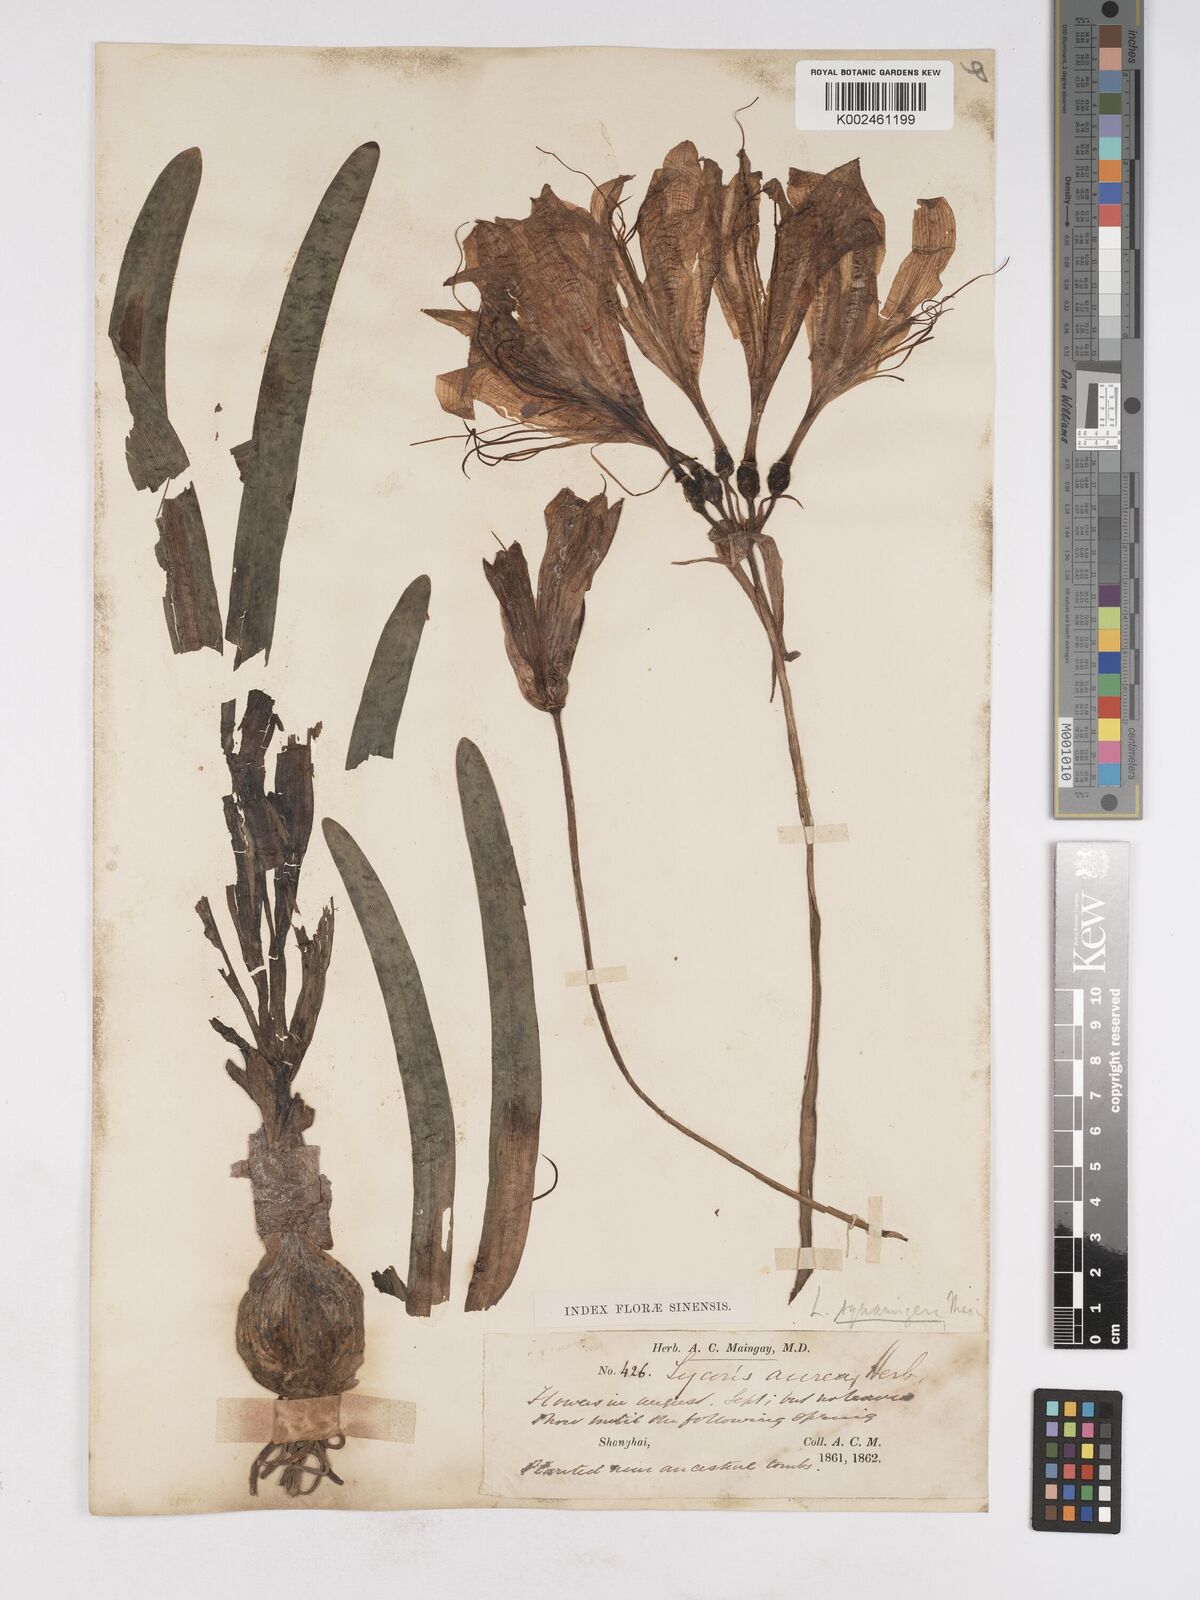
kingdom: Plantae
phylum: Tracheophyta
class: Liliopsida
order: Asparagales
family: Amaryllidaceae
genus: Lycoris
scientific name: Lycoris squamigera
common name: Magic-lily
